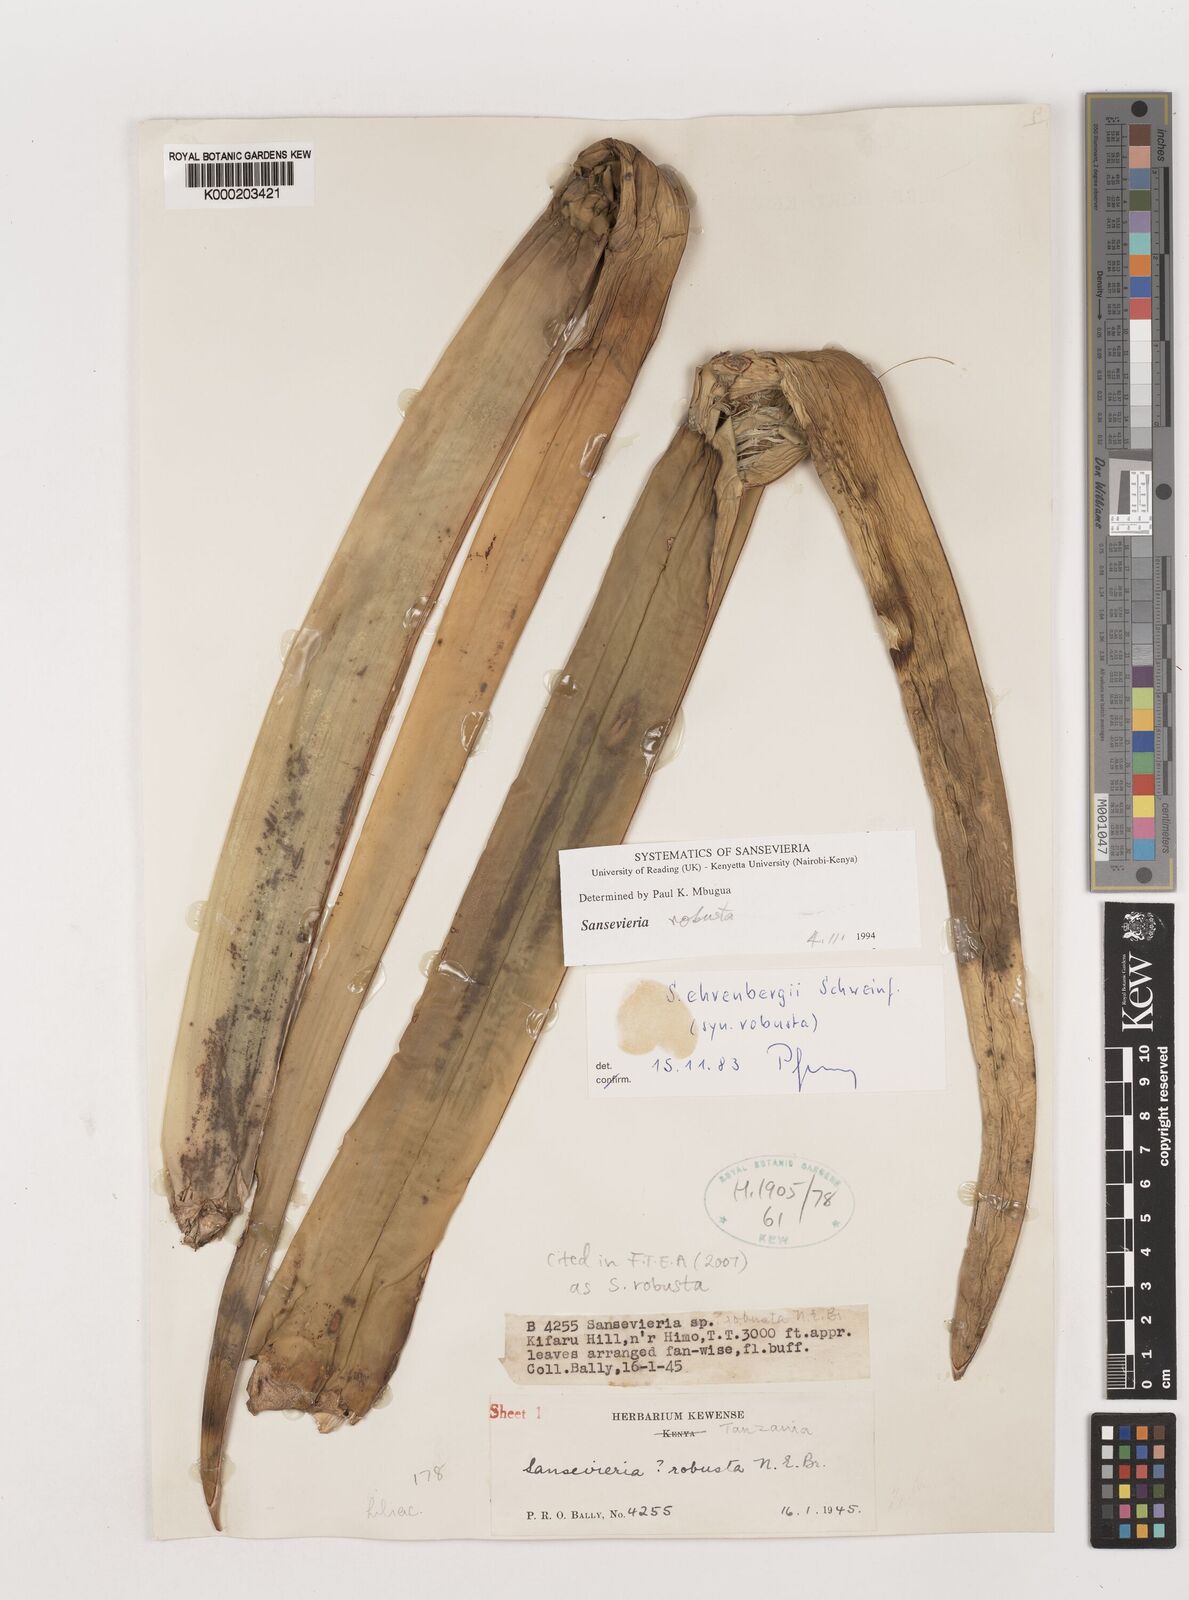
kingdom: Plantae
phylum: Tracheophyta
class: Liliopsida
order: Asparagales
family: Asparagaceae
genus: Dracaena
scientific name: Dracaena perrotii
